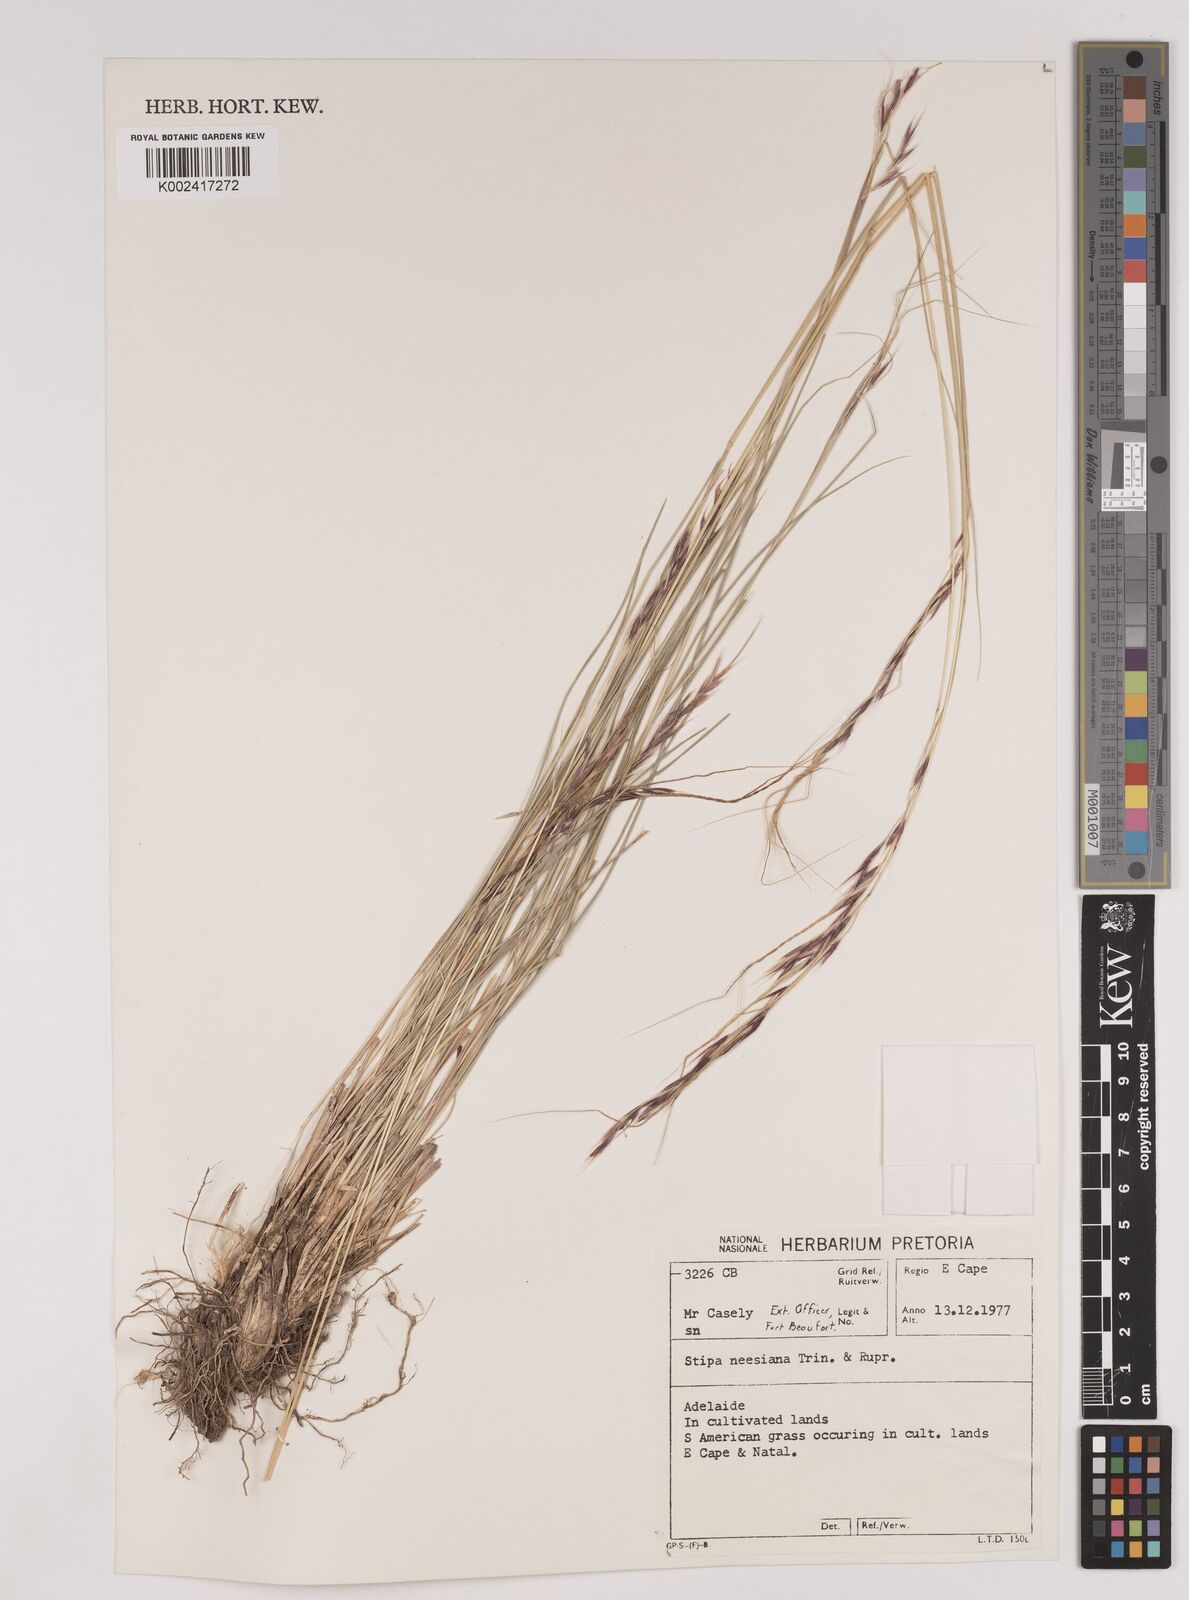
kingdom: Plantae
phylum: Tracheophyta
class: Liliopsida
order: Poales
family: Poaceae
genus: Nassella
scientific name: Nassella neesiana
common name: American needle-grass
